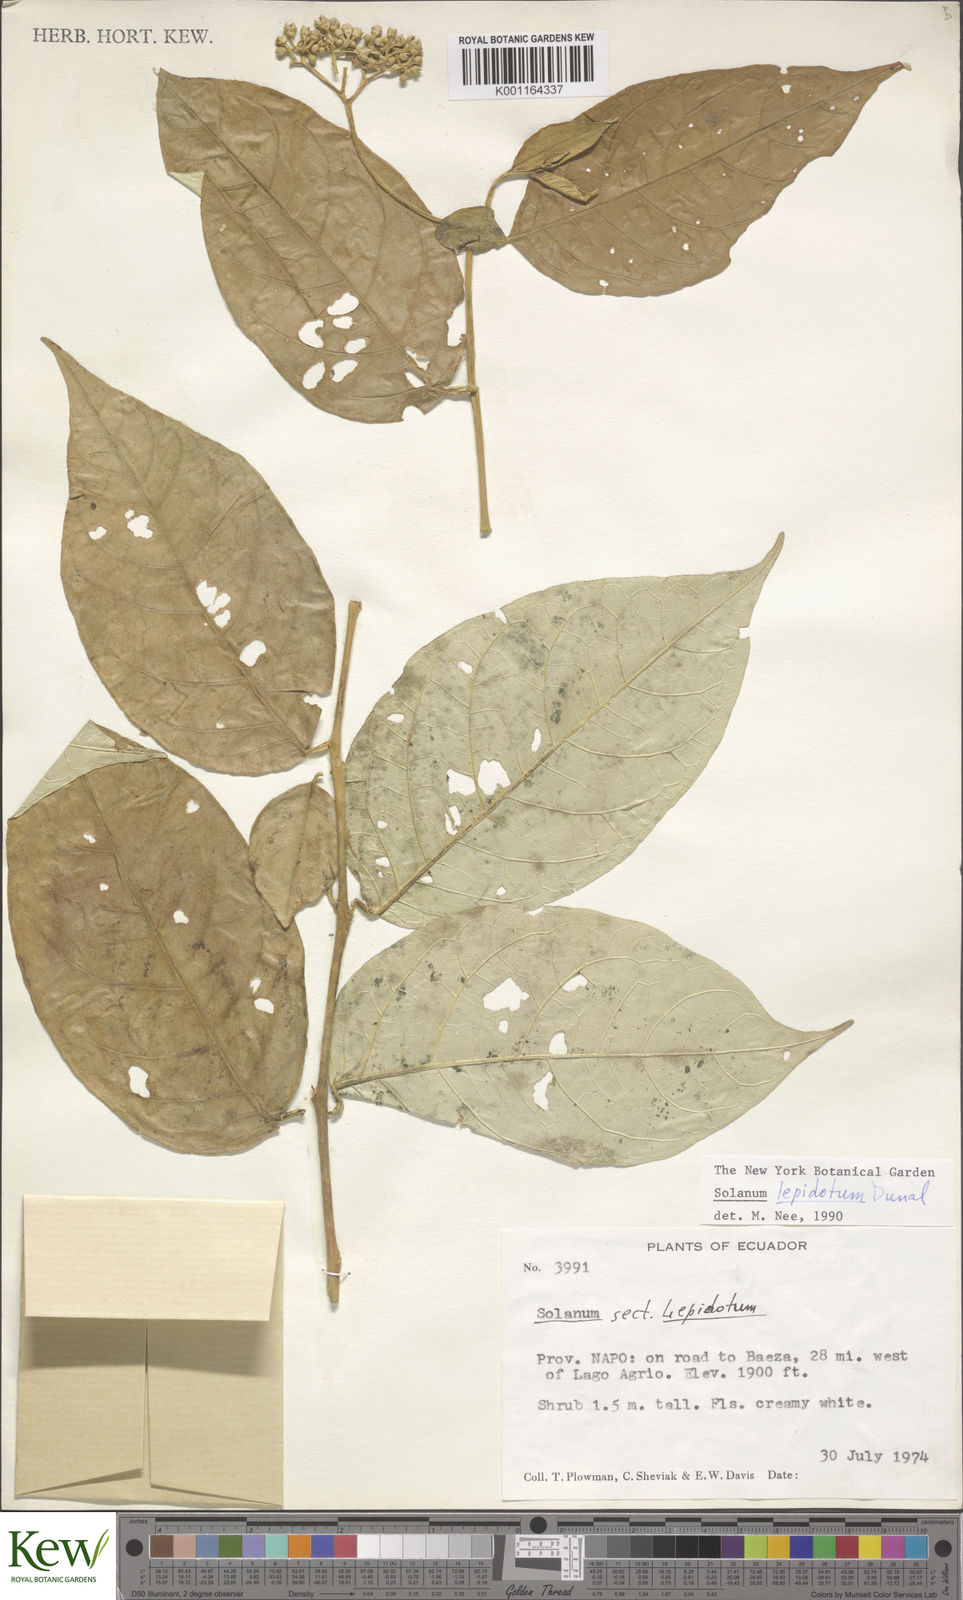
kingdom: Plantae
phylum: Tracheophyta
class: Magnoliopsida
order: Solanales
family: Solanaceae
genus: Solanum
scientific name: Solanum lepidotum
